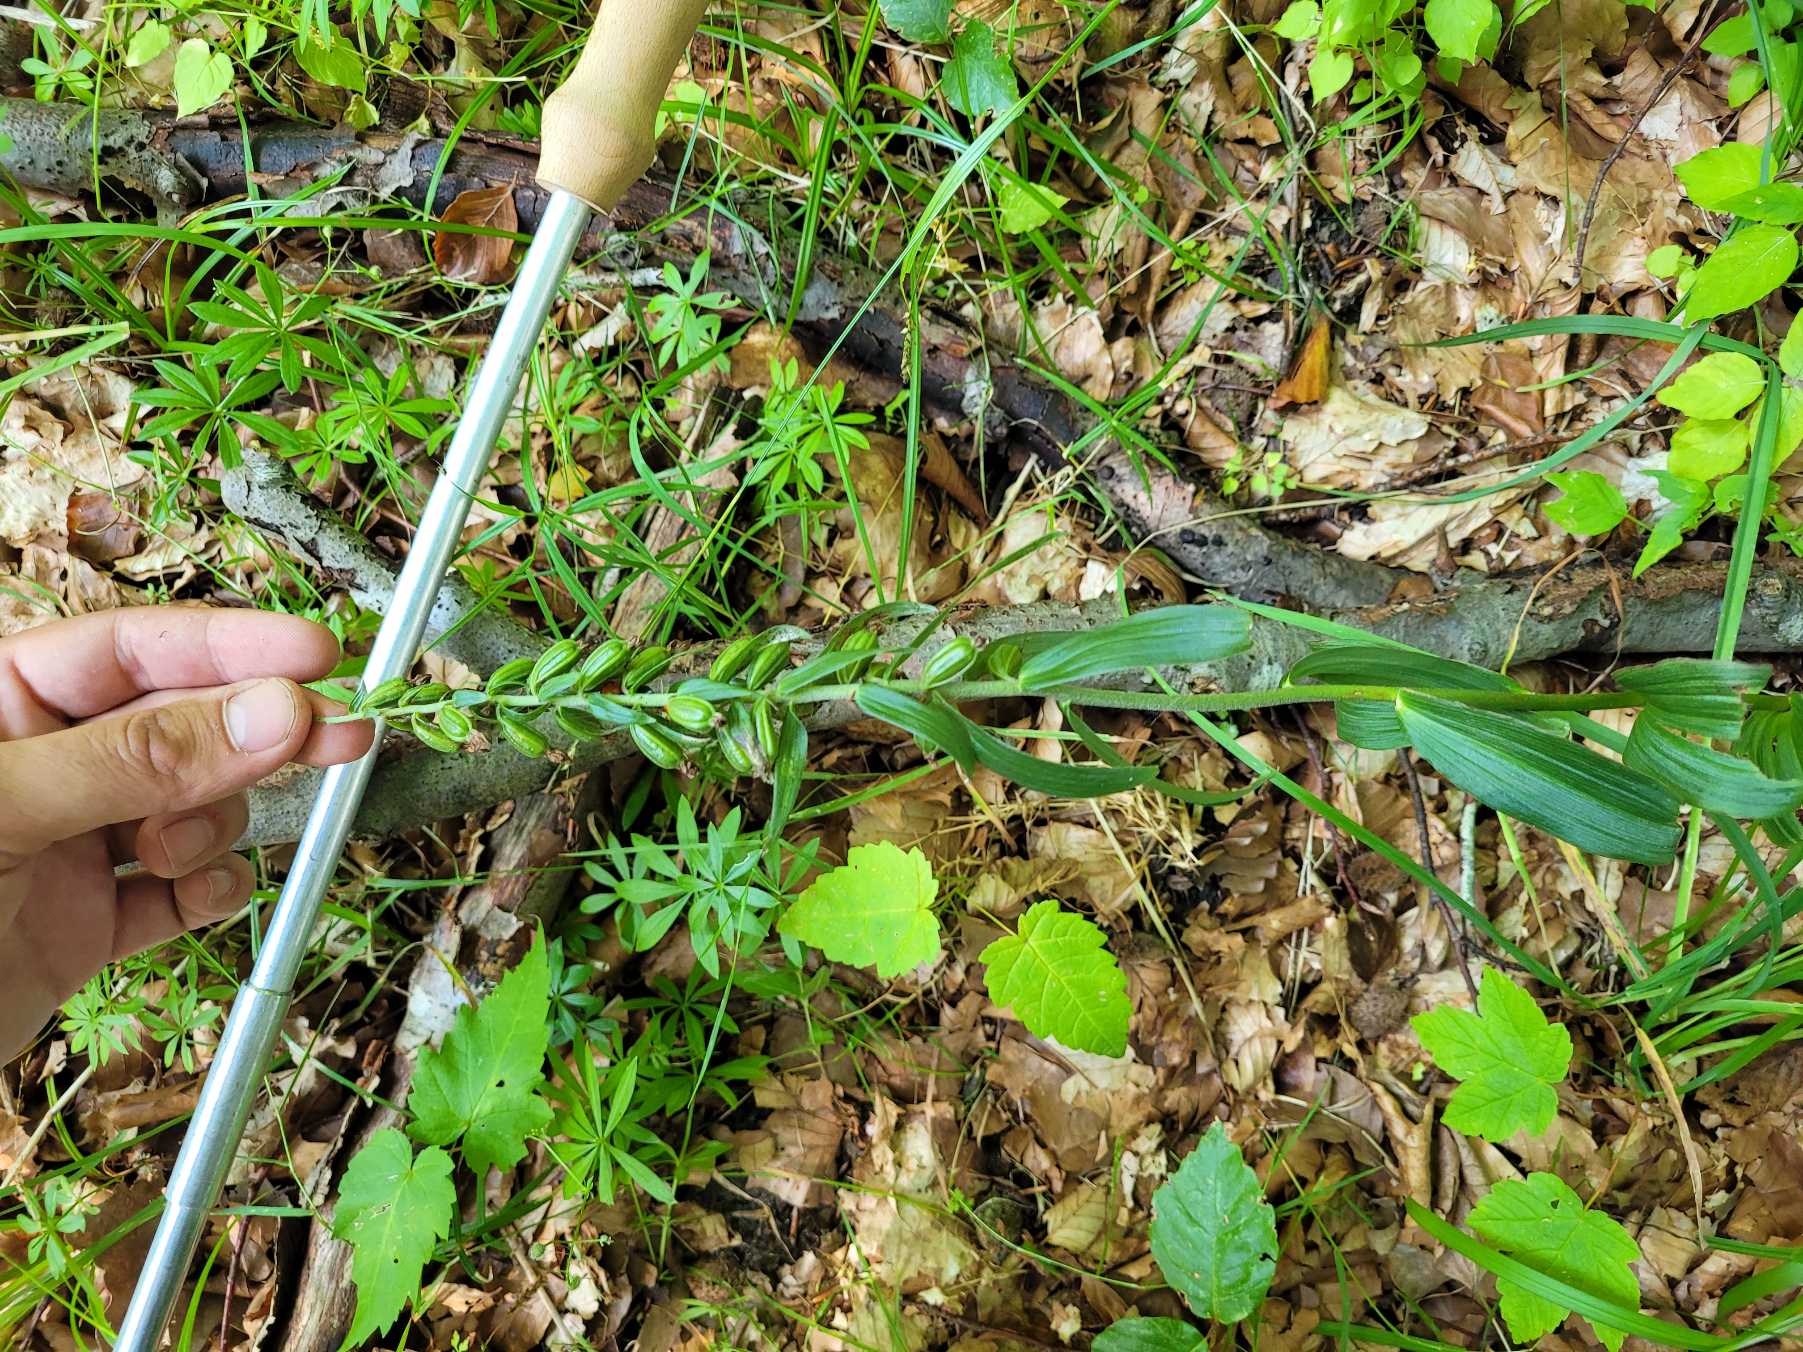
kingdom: Plantae
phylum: Tracheophyta
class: Liliopsida
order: Asparagales
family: Orchidaceae
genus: Epipactis
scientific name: Epipactis helleborine
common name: Skov-hullæbe
